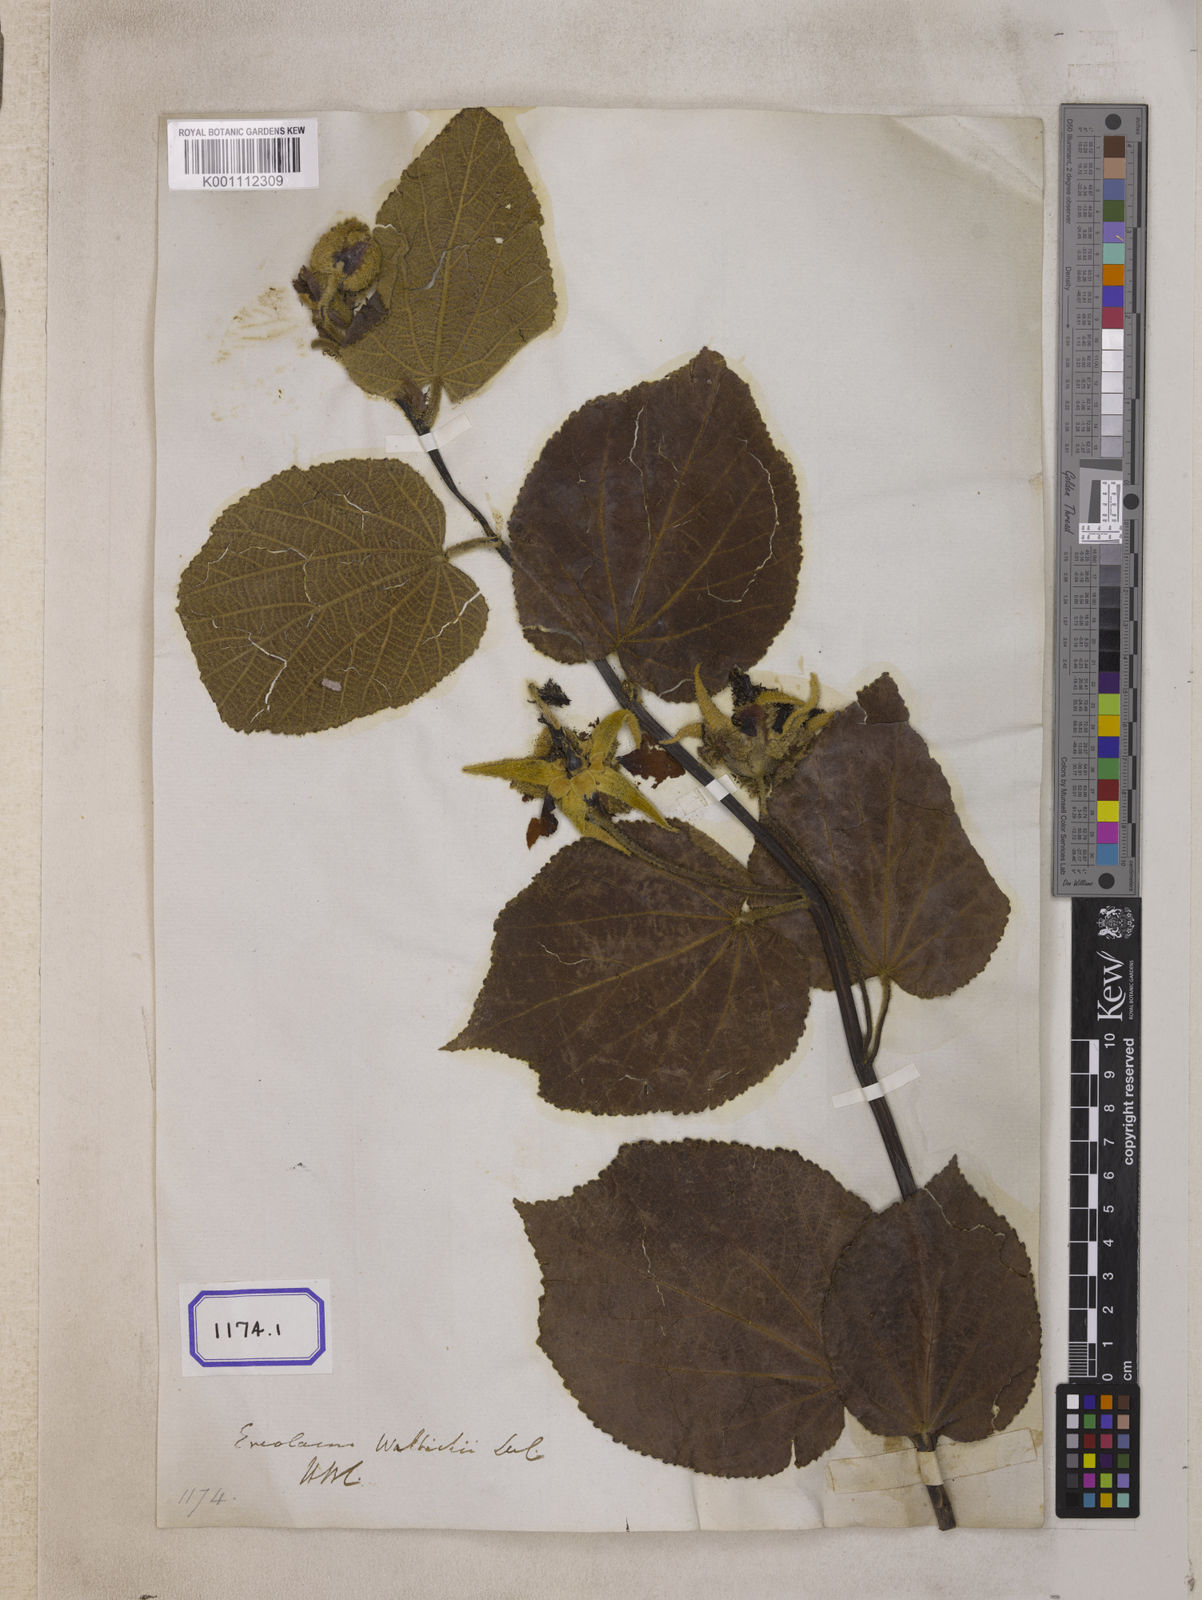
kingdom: Plantae
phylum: Tracheophyta
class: Magnoliopsida
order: Malvales
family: Malvaceae
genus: Eriolaena
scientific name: Eriolaena wallichii
